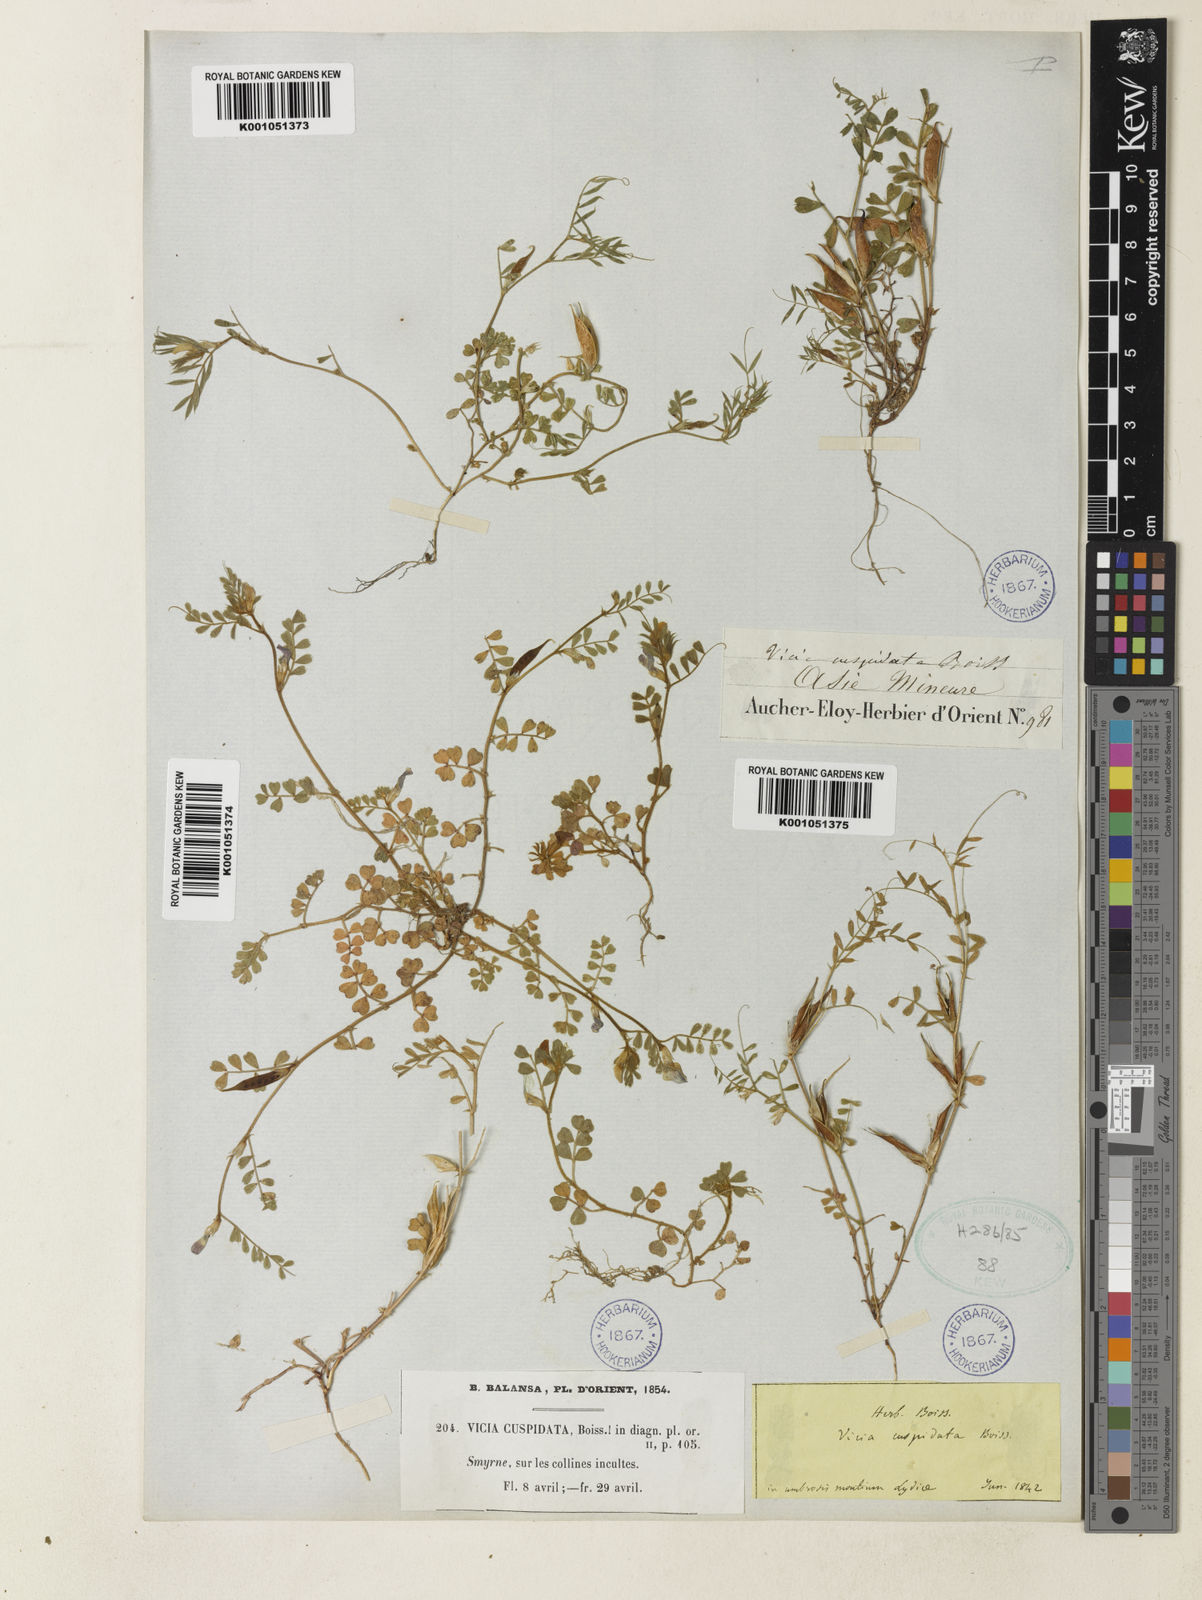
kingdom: Plantae
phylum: Tracheophyta
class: Magnoliopsida
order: Fabales
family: Fabaceae
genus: Vicia
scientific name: Vicia cuspidata
